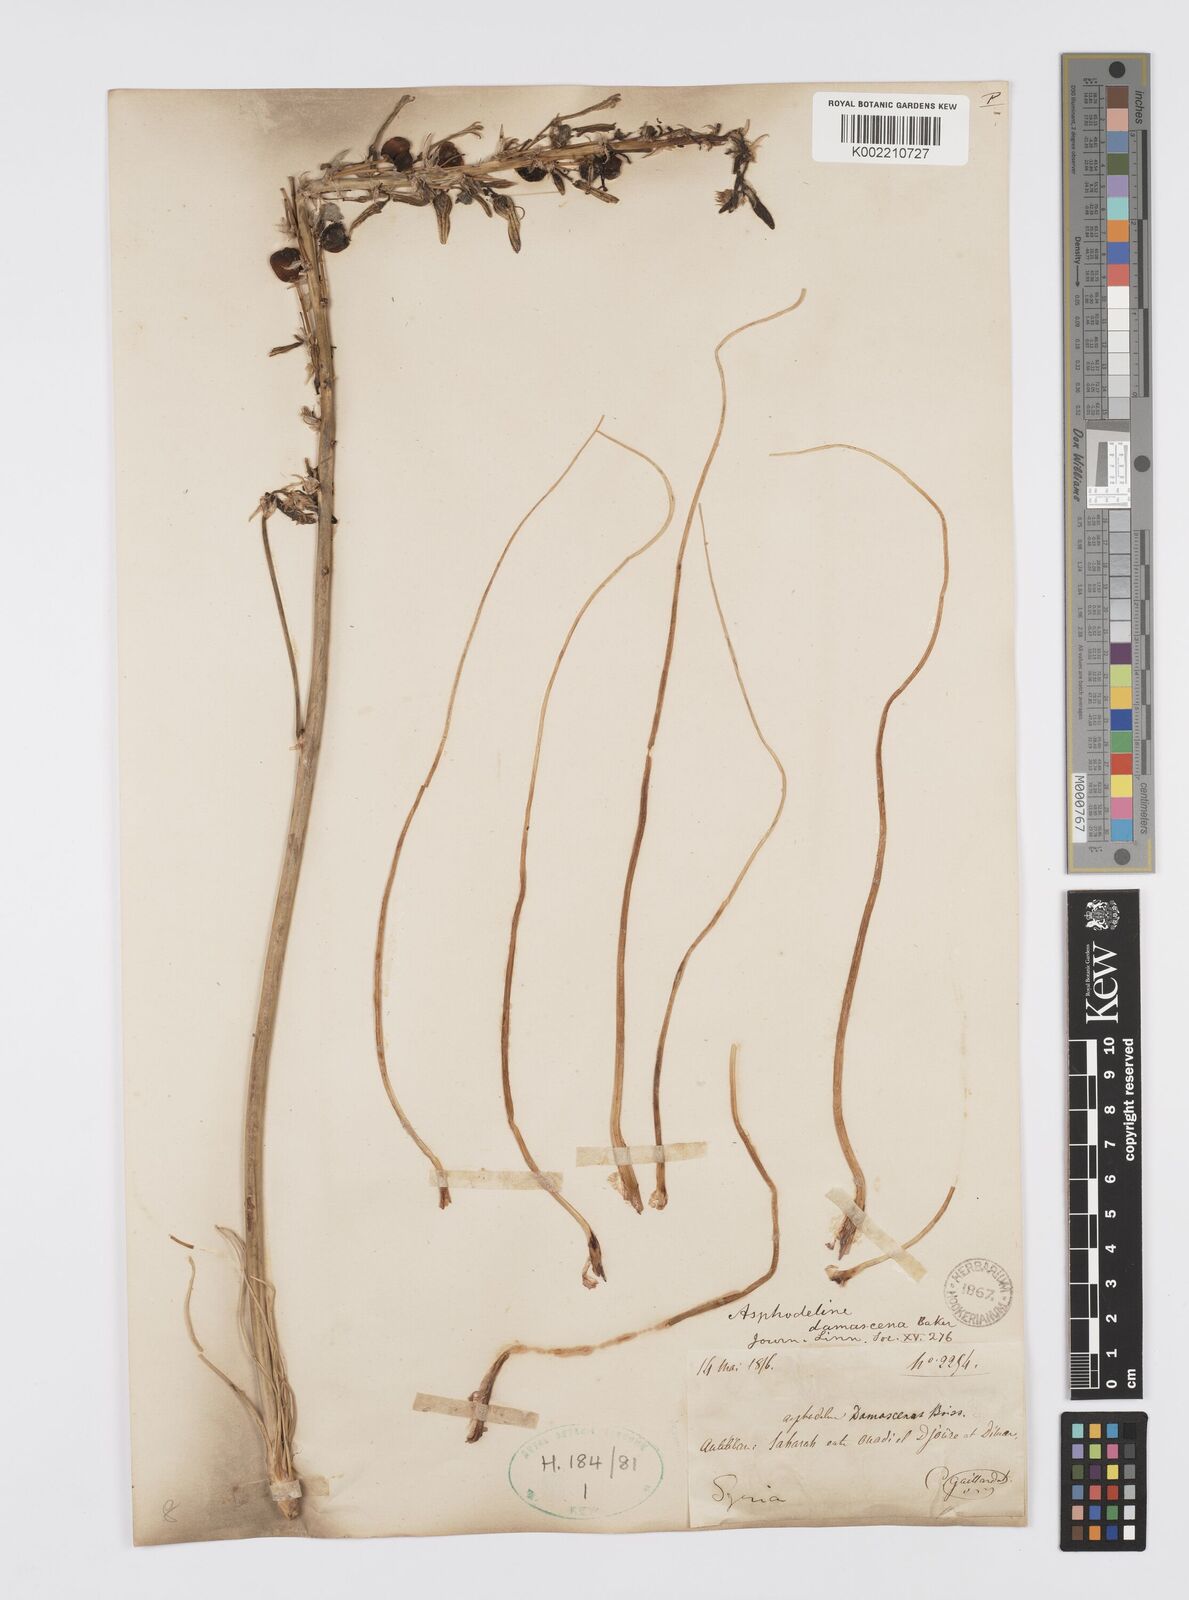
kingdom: Plantae
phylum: Tracheophyta
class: Liliopsida
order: Asparagales
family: Asphodelaceae
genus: Asphodeline
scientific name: Asphodeline damascena
